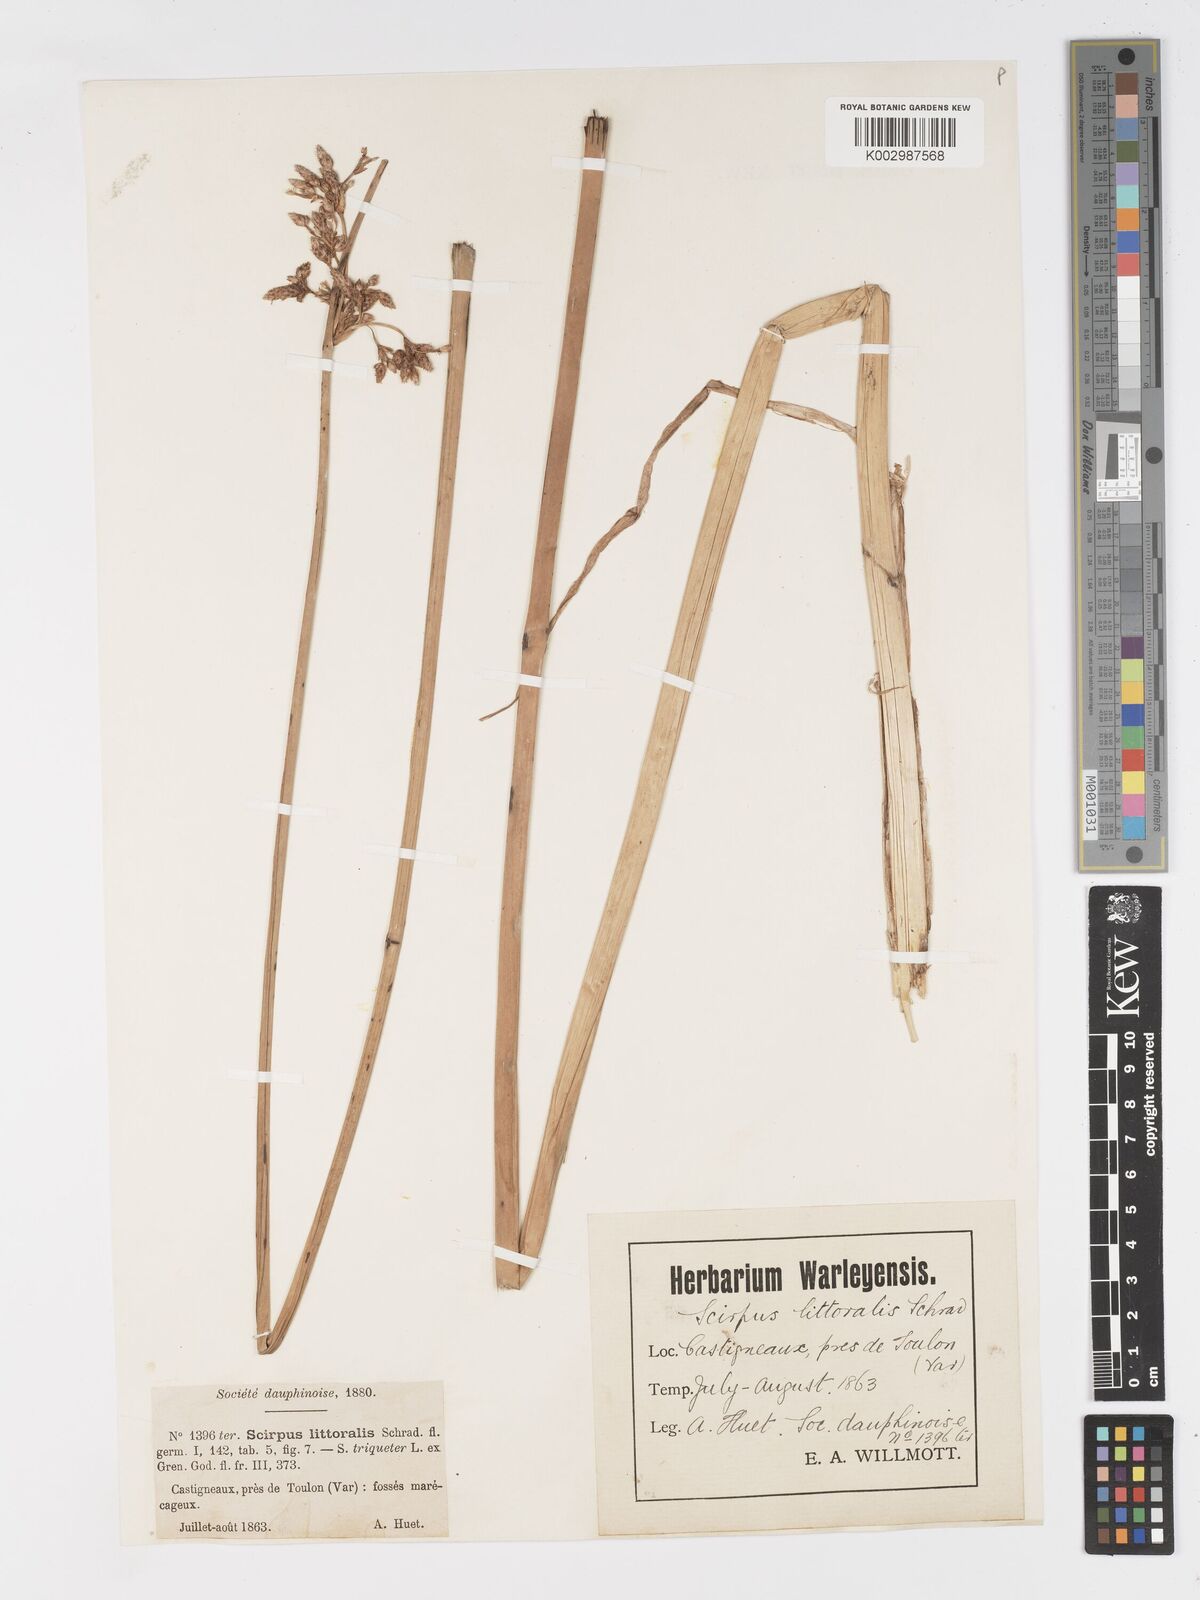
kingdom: Plantae
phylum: Tracheophyta
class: Liliopsida
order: Poales
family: Cyperaceae
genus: Schoenoplectus
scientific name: Schoenoplectus litoralis
